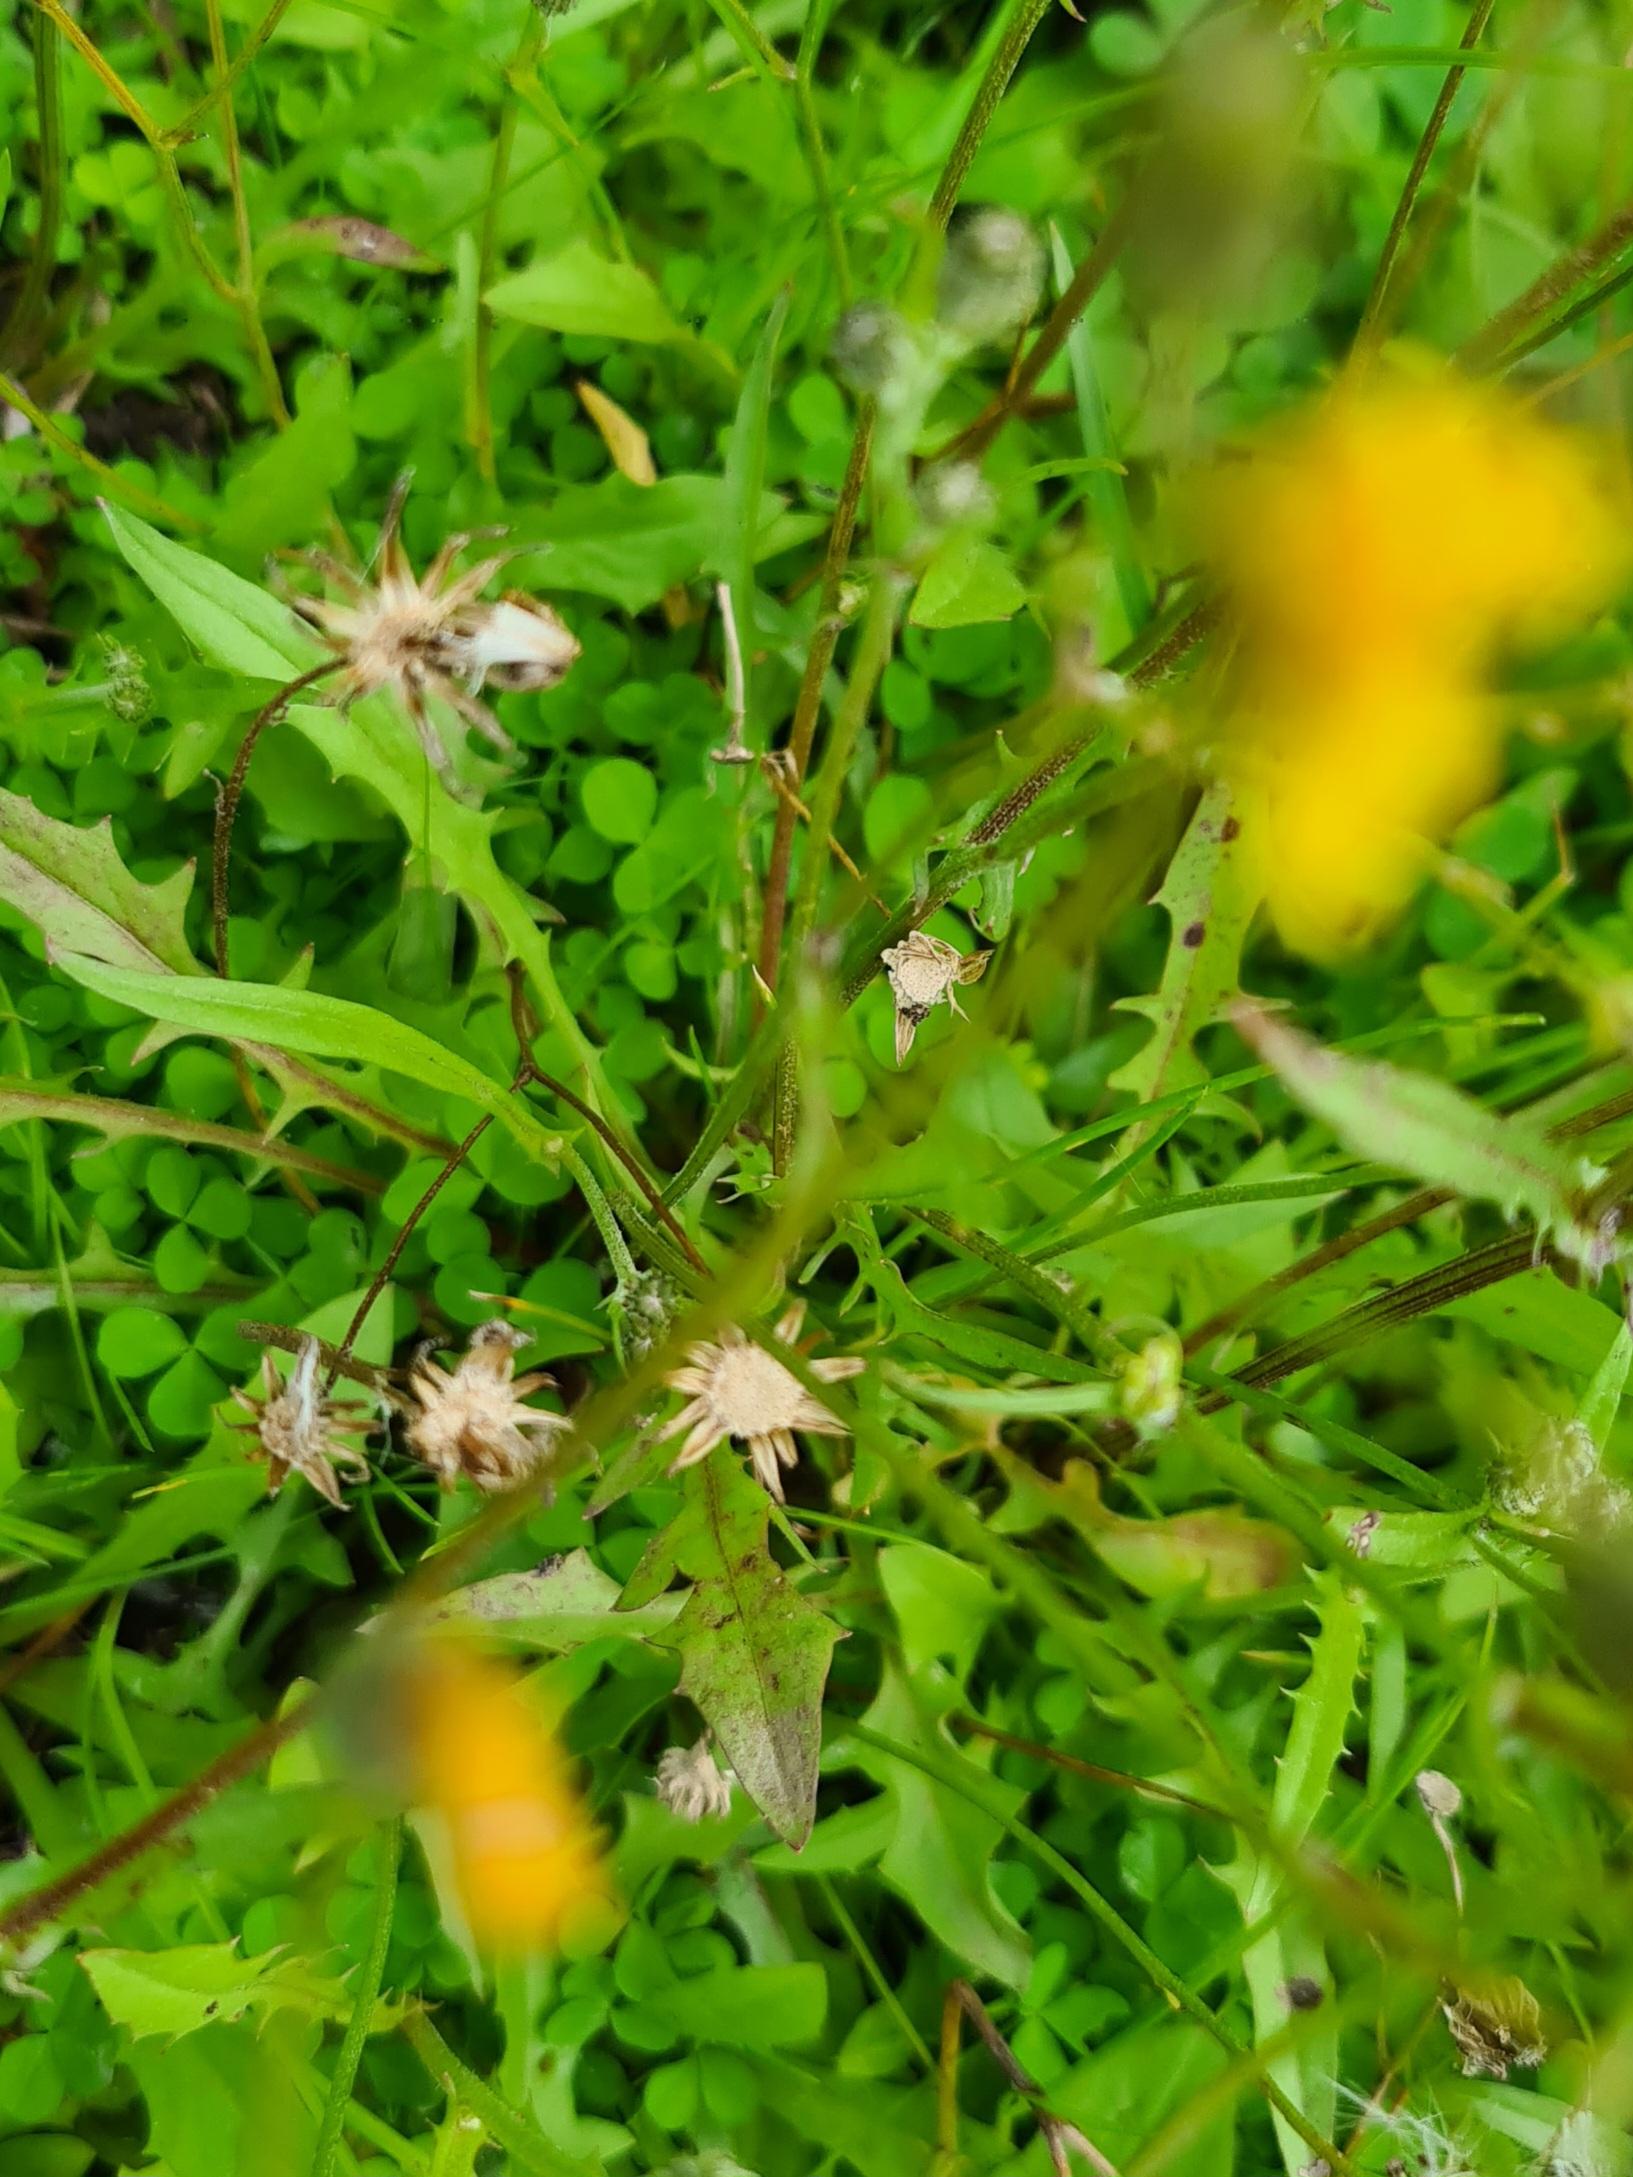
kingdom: Plantae
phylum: Tracheophyta
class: Magnoliopsida
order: Asterales
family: Asteraceae
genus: Scorzoneroides
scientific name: Scorzoneroides autumnalis
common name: Høst-borst
